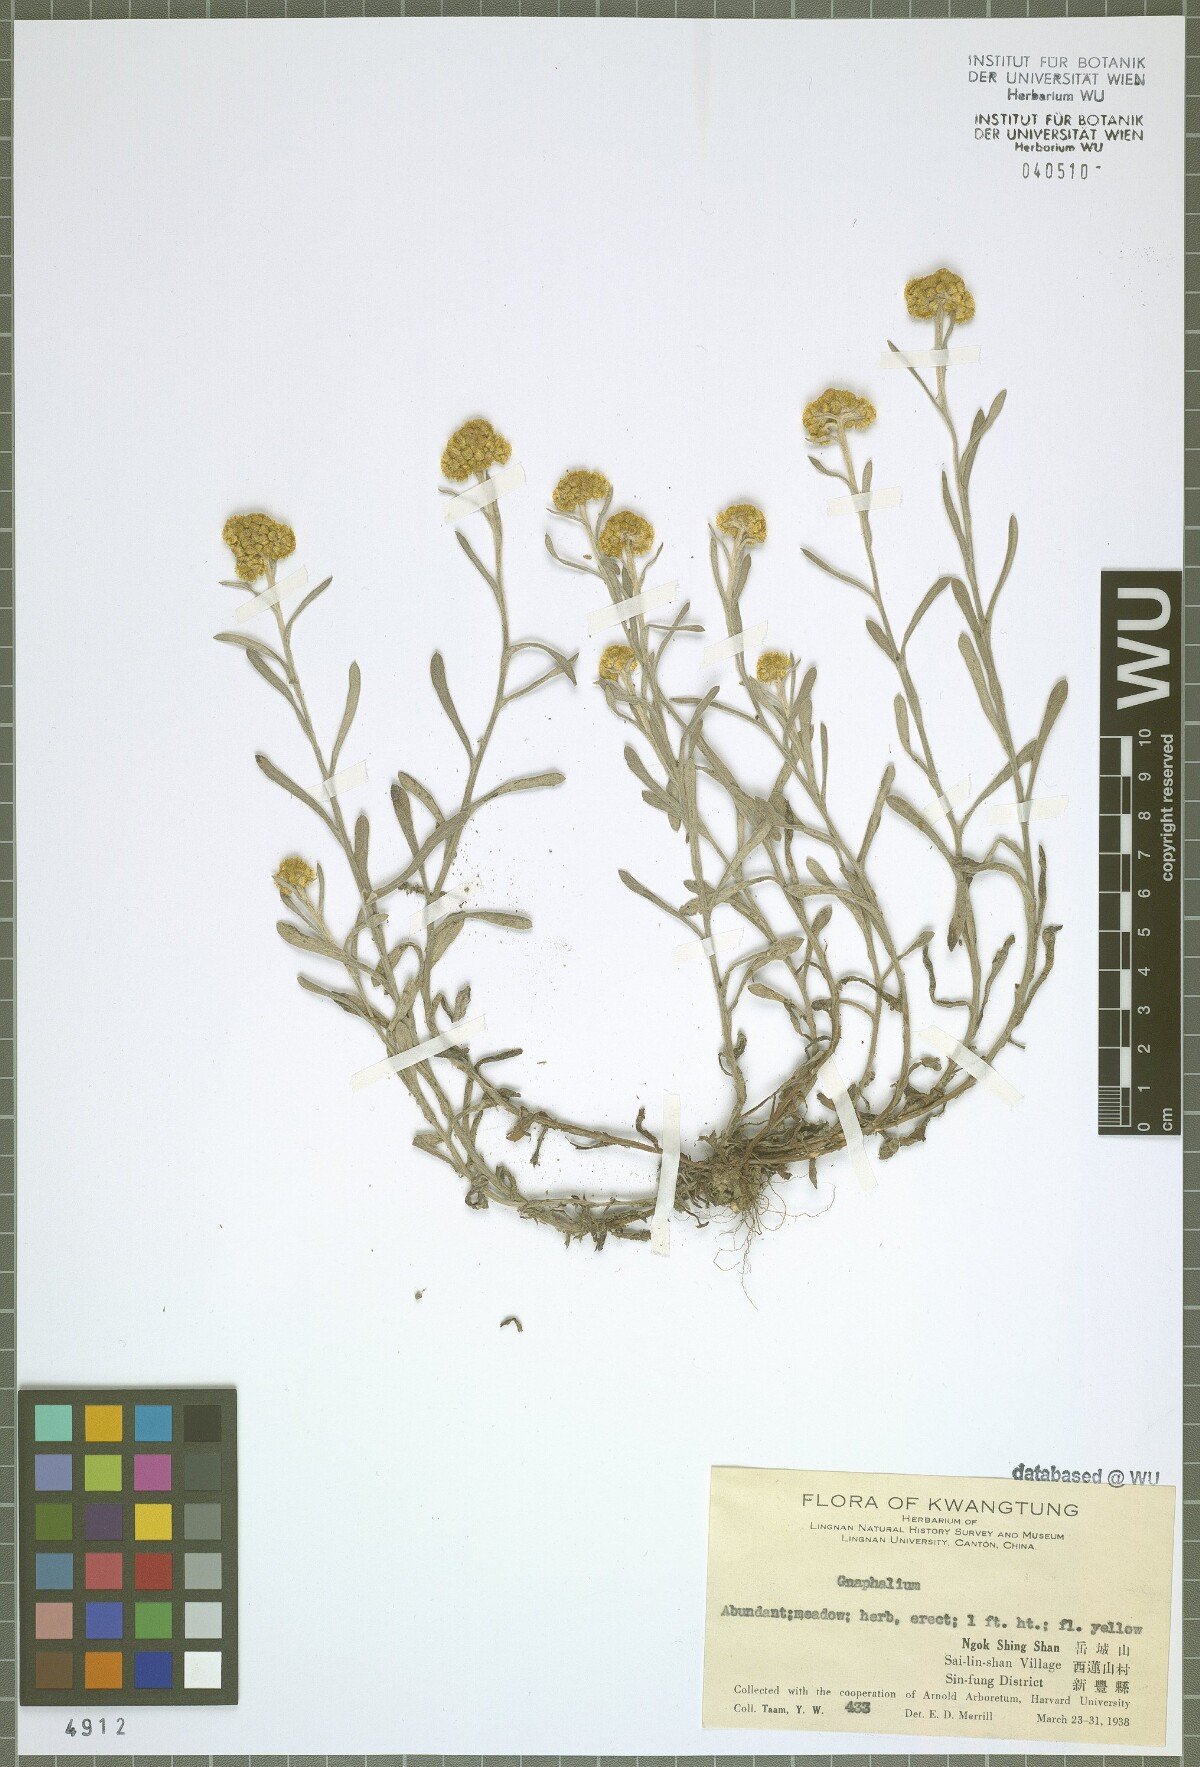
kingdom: Plantae
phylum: Tracheophyta
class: Magnoliopsida
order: Asterales
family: Asteraceae
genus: Gnaphalium
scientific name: Gnaphalium
